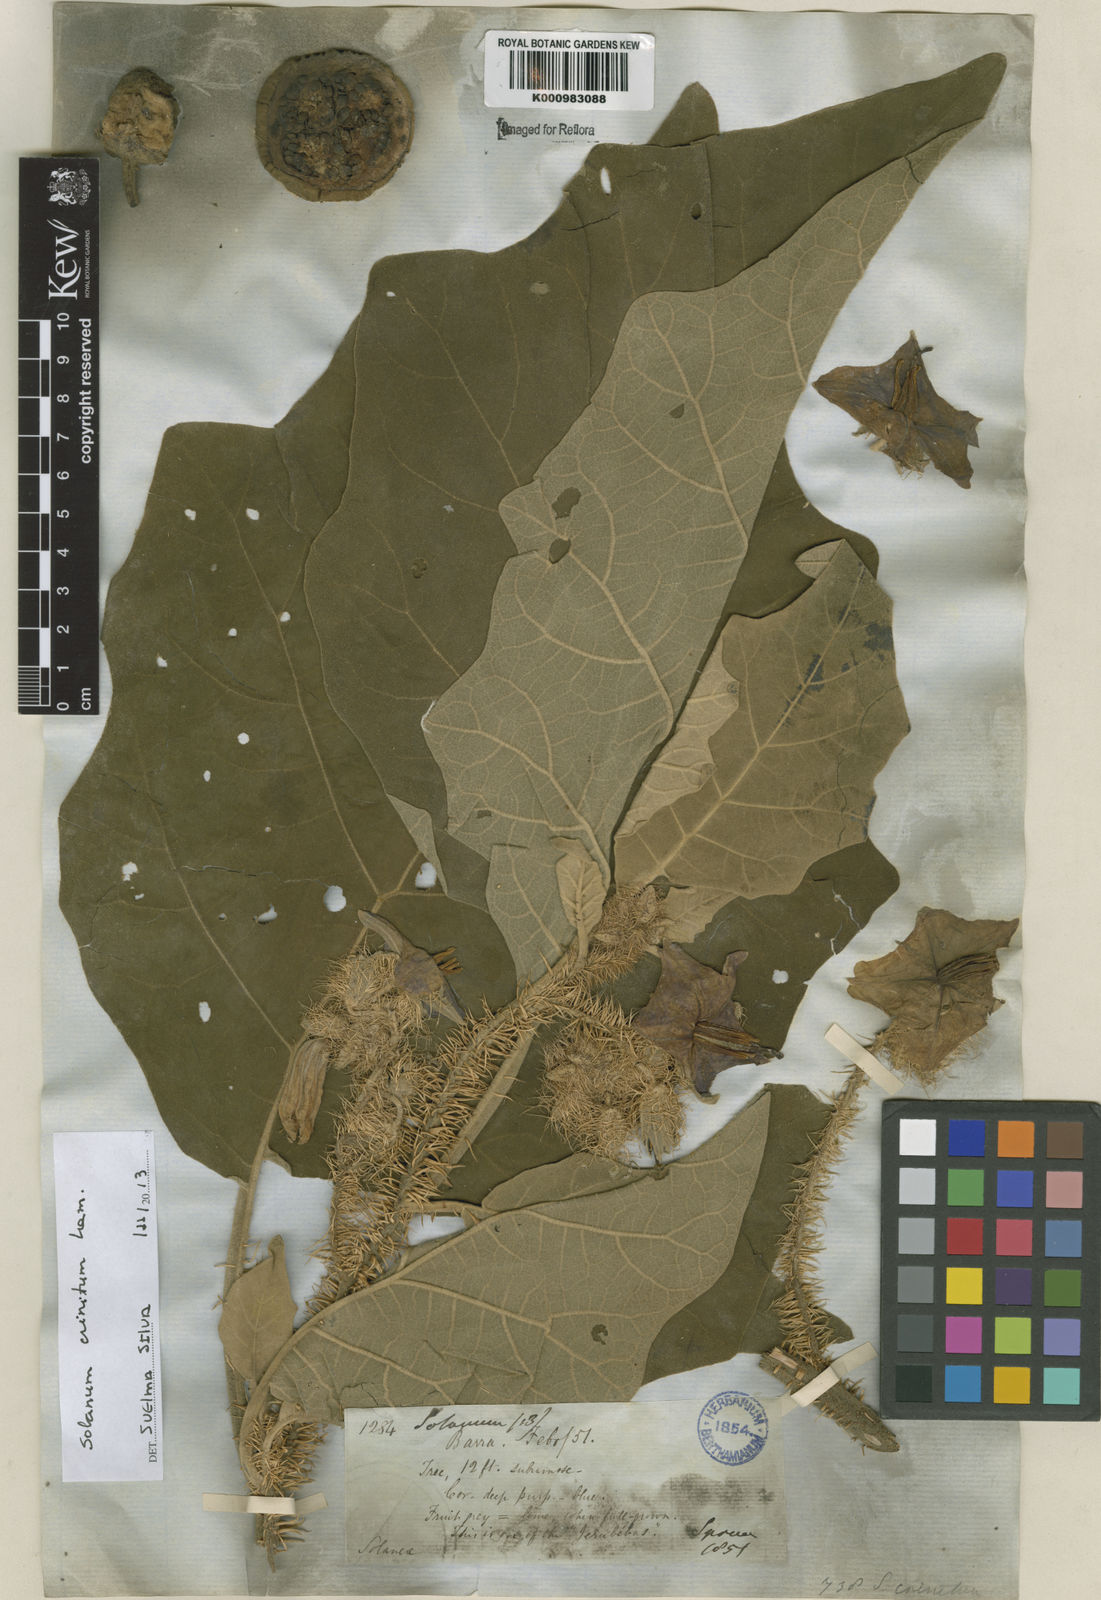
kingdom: Plantae
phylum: Tracheophyta
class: Magnoliopsida
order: Solanales
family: Solanaceae
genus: Solanum
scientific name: Solanum crinitum
